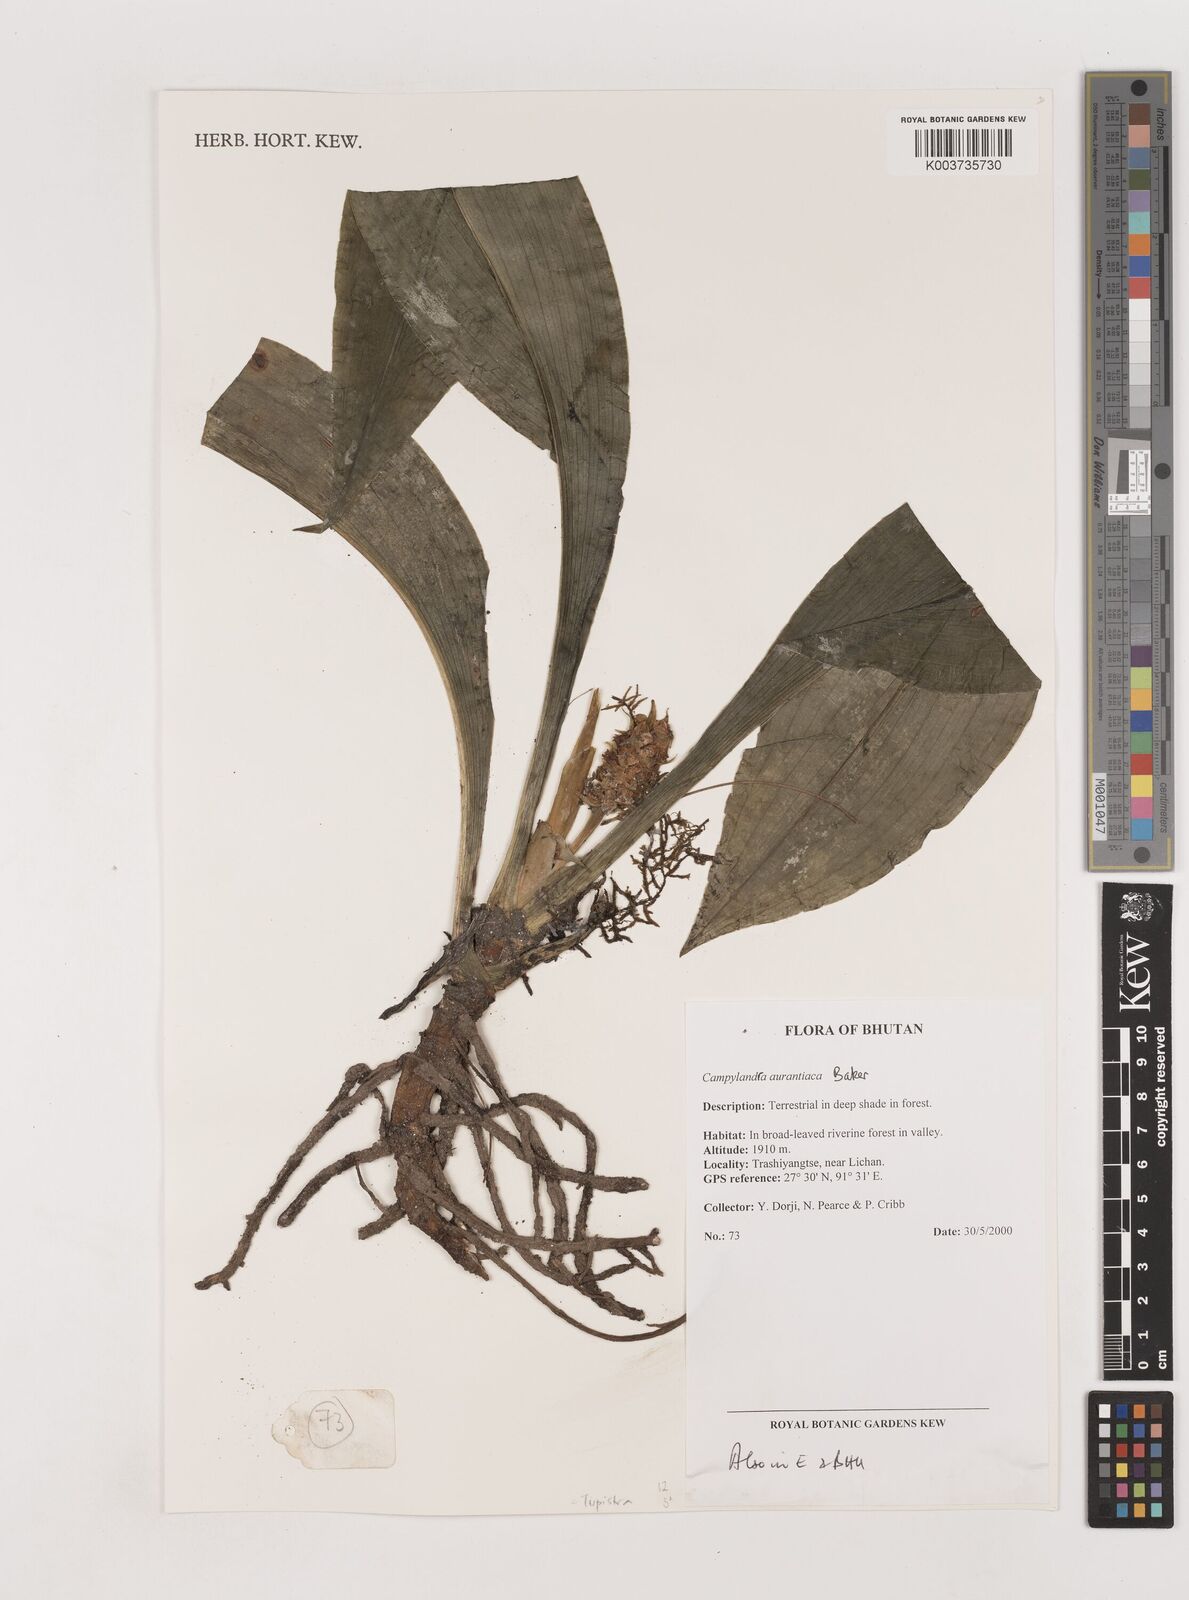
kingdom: Plantae
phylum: Tracheophyta
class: Liliopsida
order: Asparagales
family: Asparagaceae
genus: Rohdea
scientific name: Rohdea nepalensis
